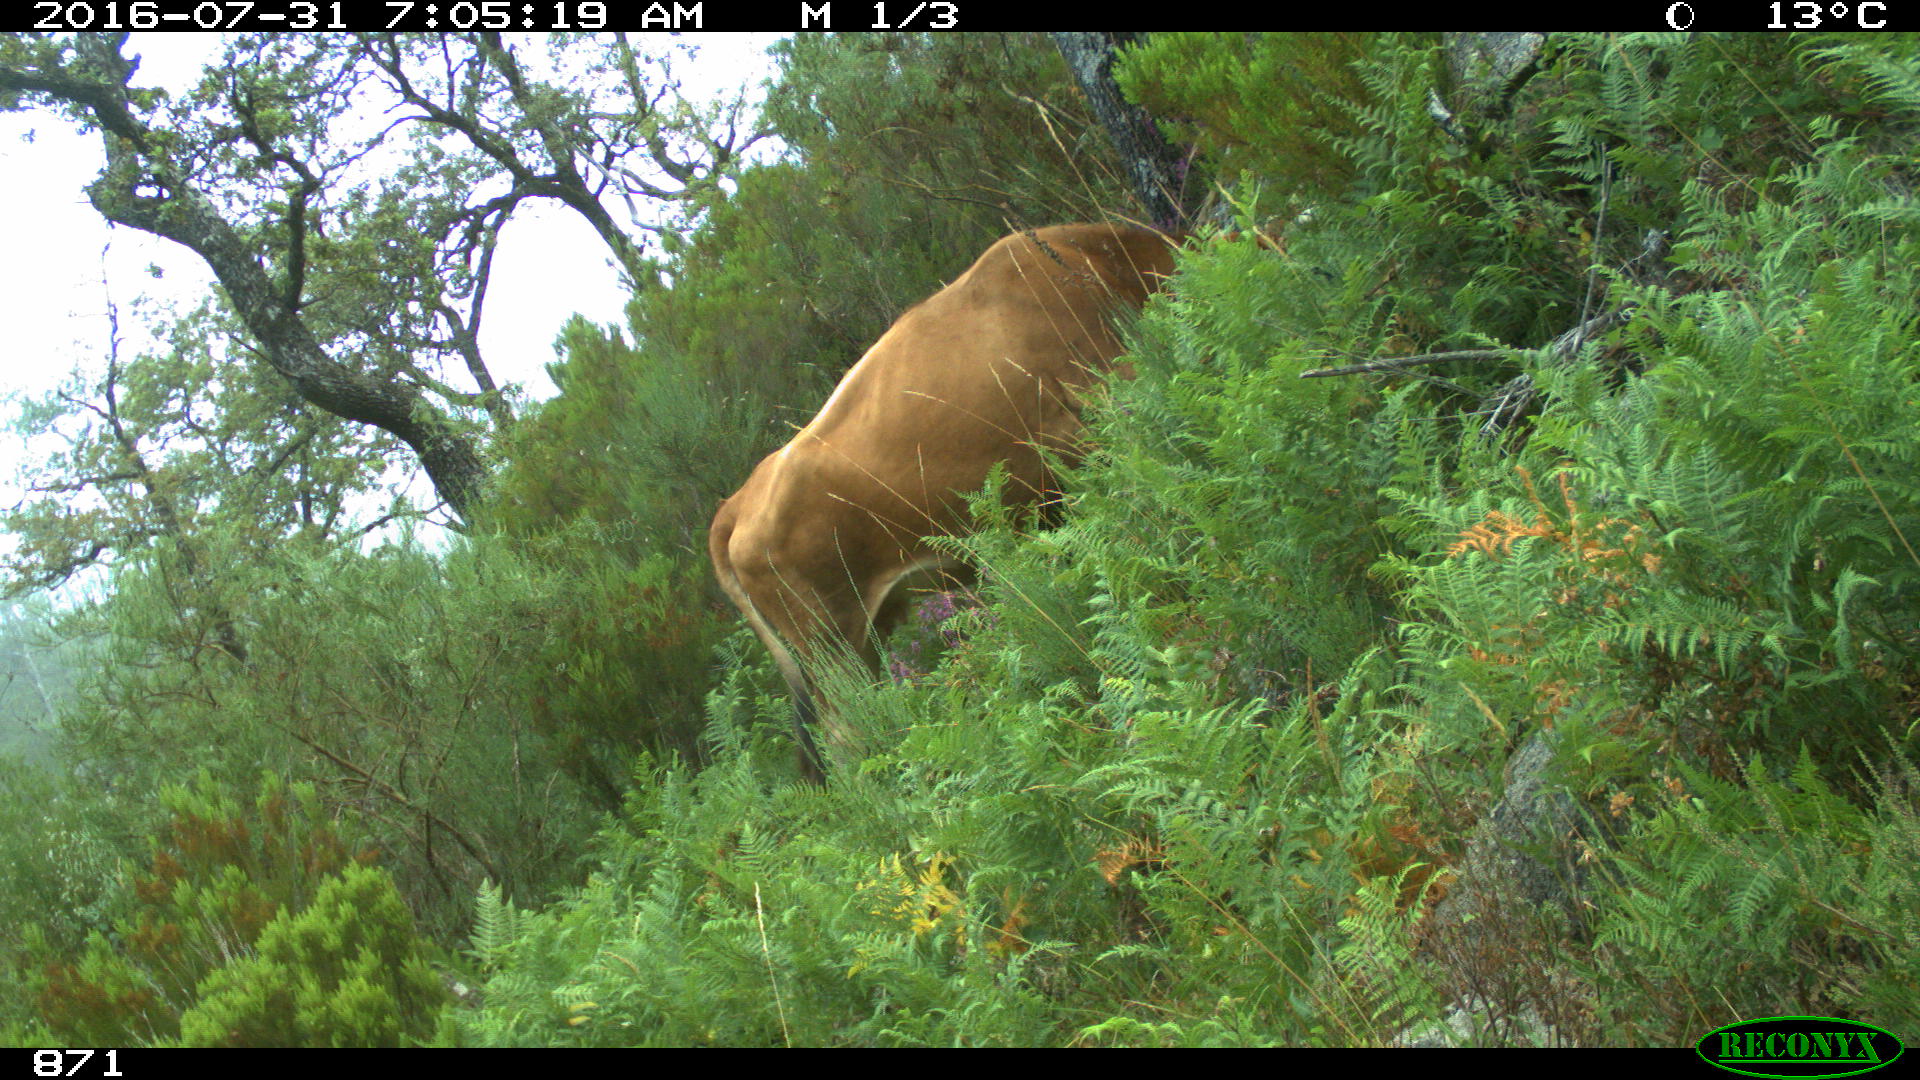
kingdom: Animalia
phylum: Chordata
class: Mammalia
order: Artiodactyla
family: Bovidae
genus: Bos
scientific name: Bos taurus
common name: Domesticated cattle
